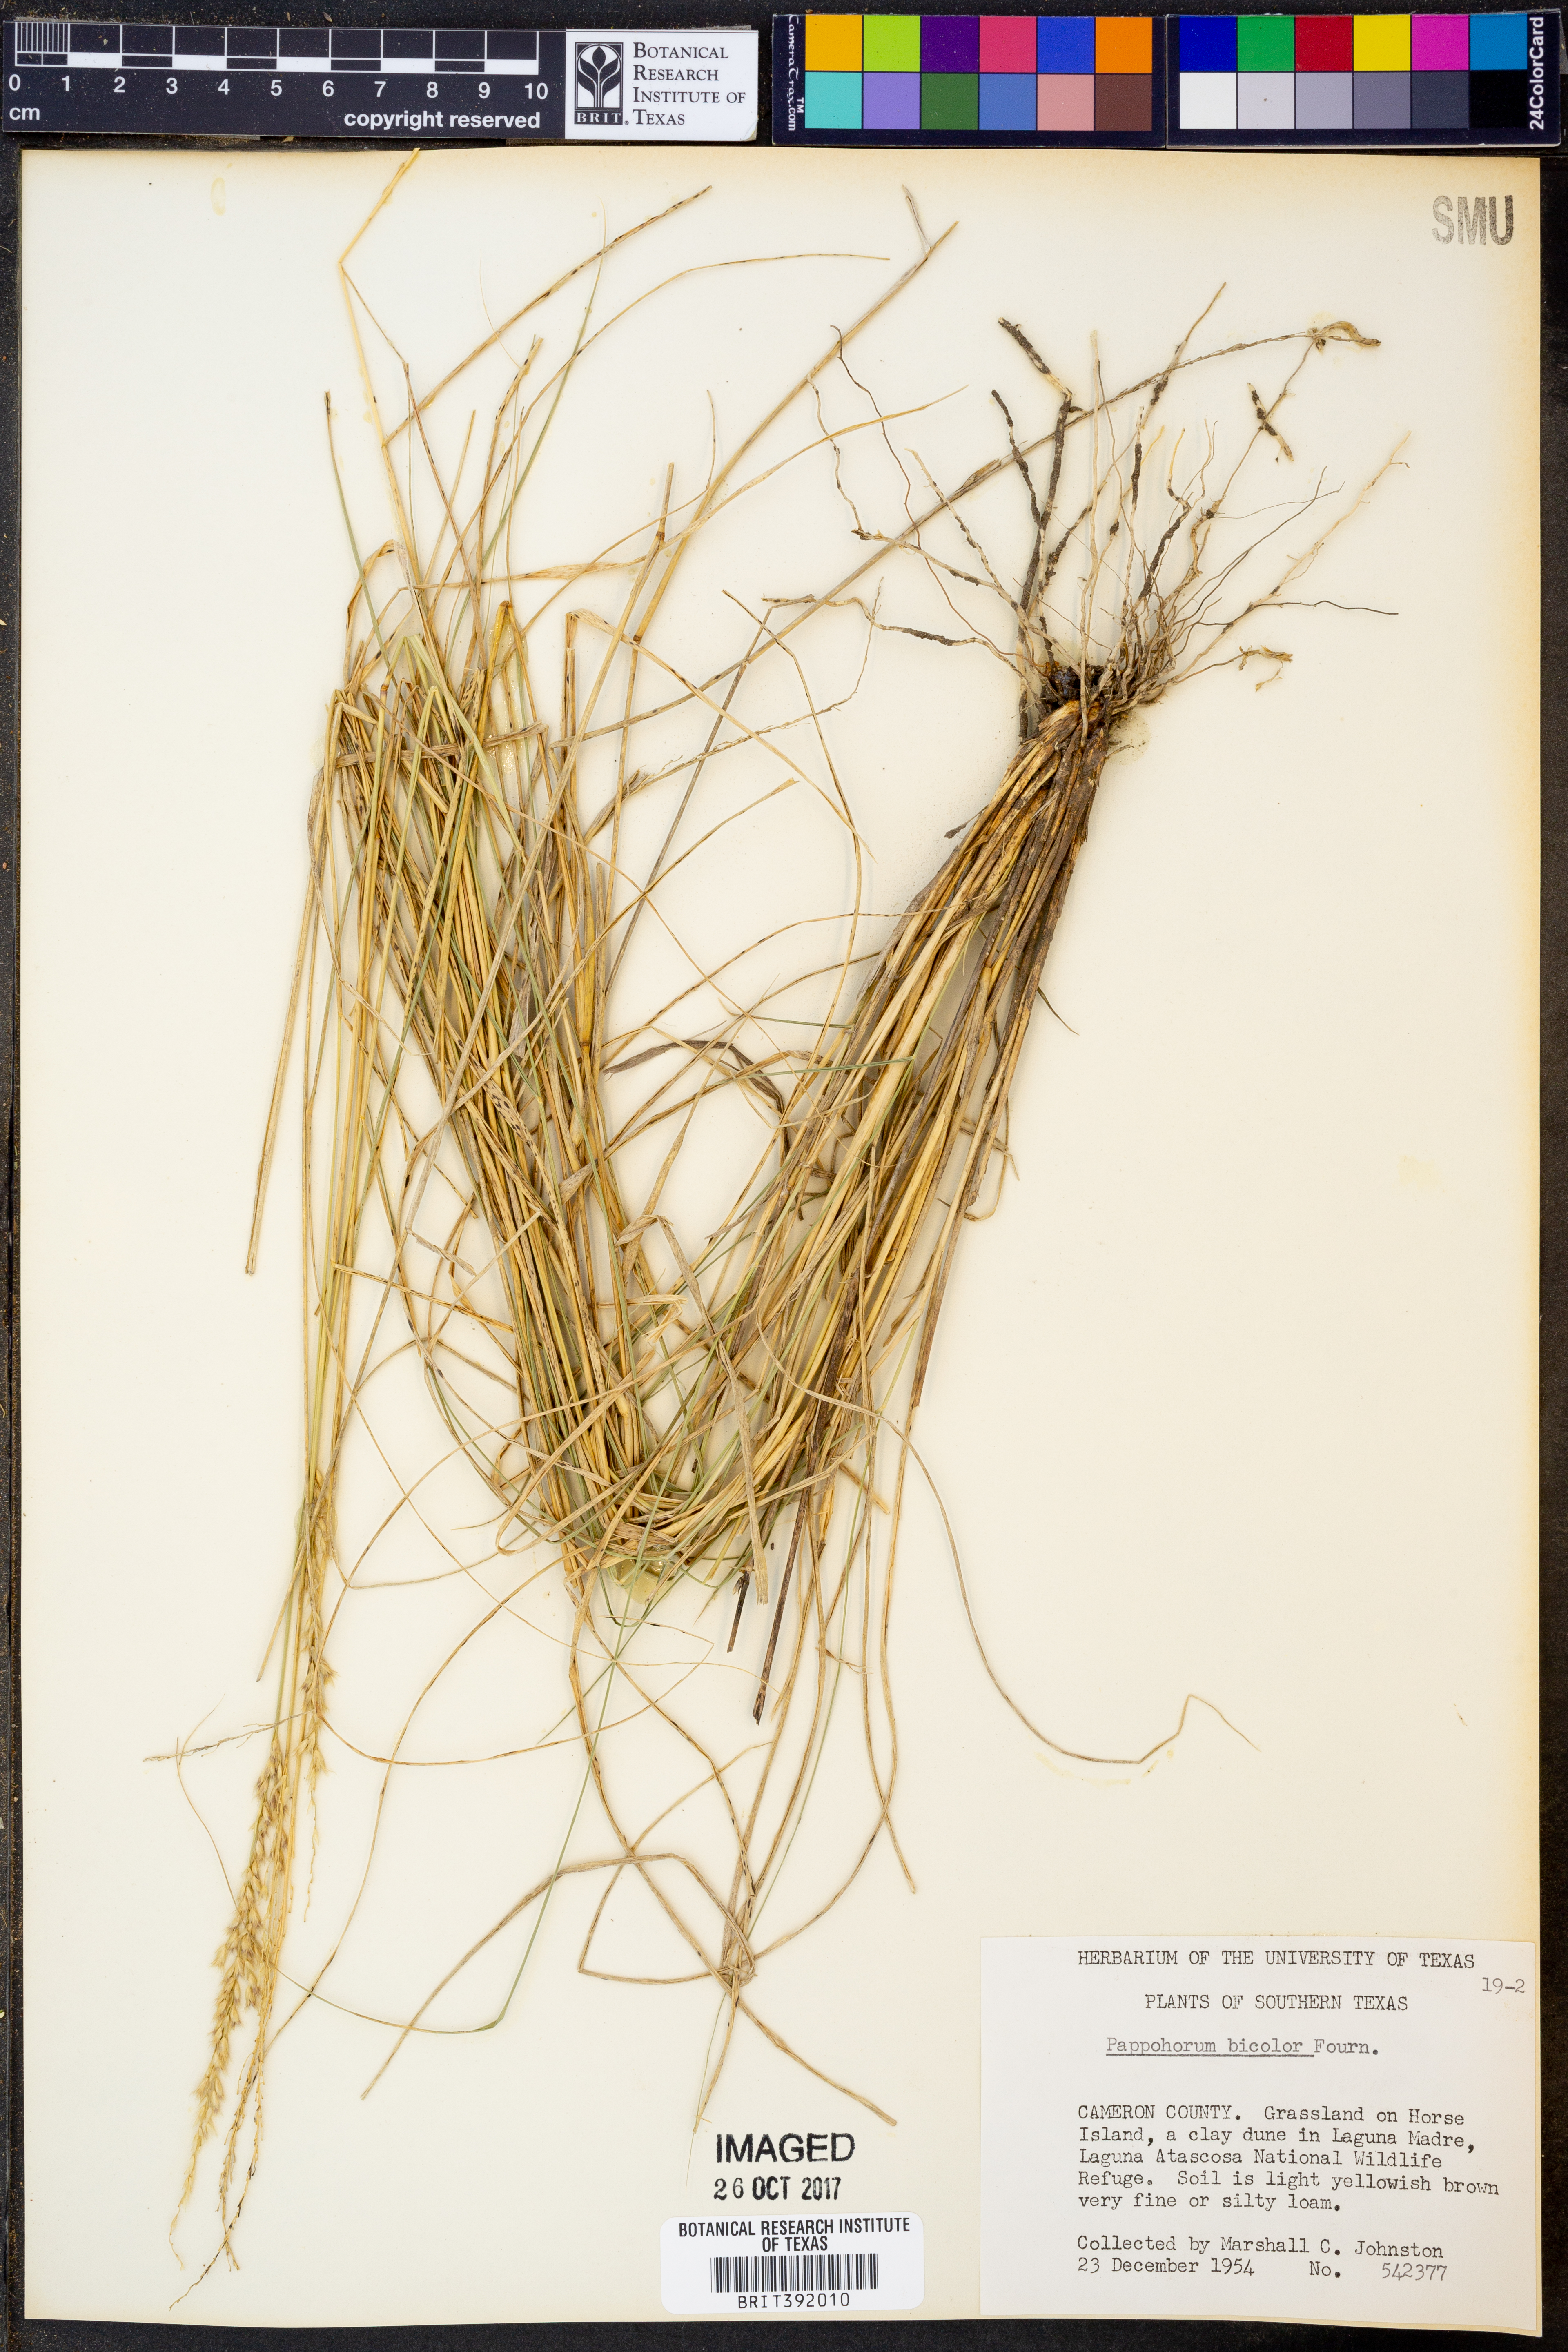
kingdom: Plantae
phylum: Tracheophyta
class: Liliopsida
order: Poales
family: Poaceae
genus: Pappophorum
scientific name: Pappophorum bicolor
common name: Pink pappus grass
